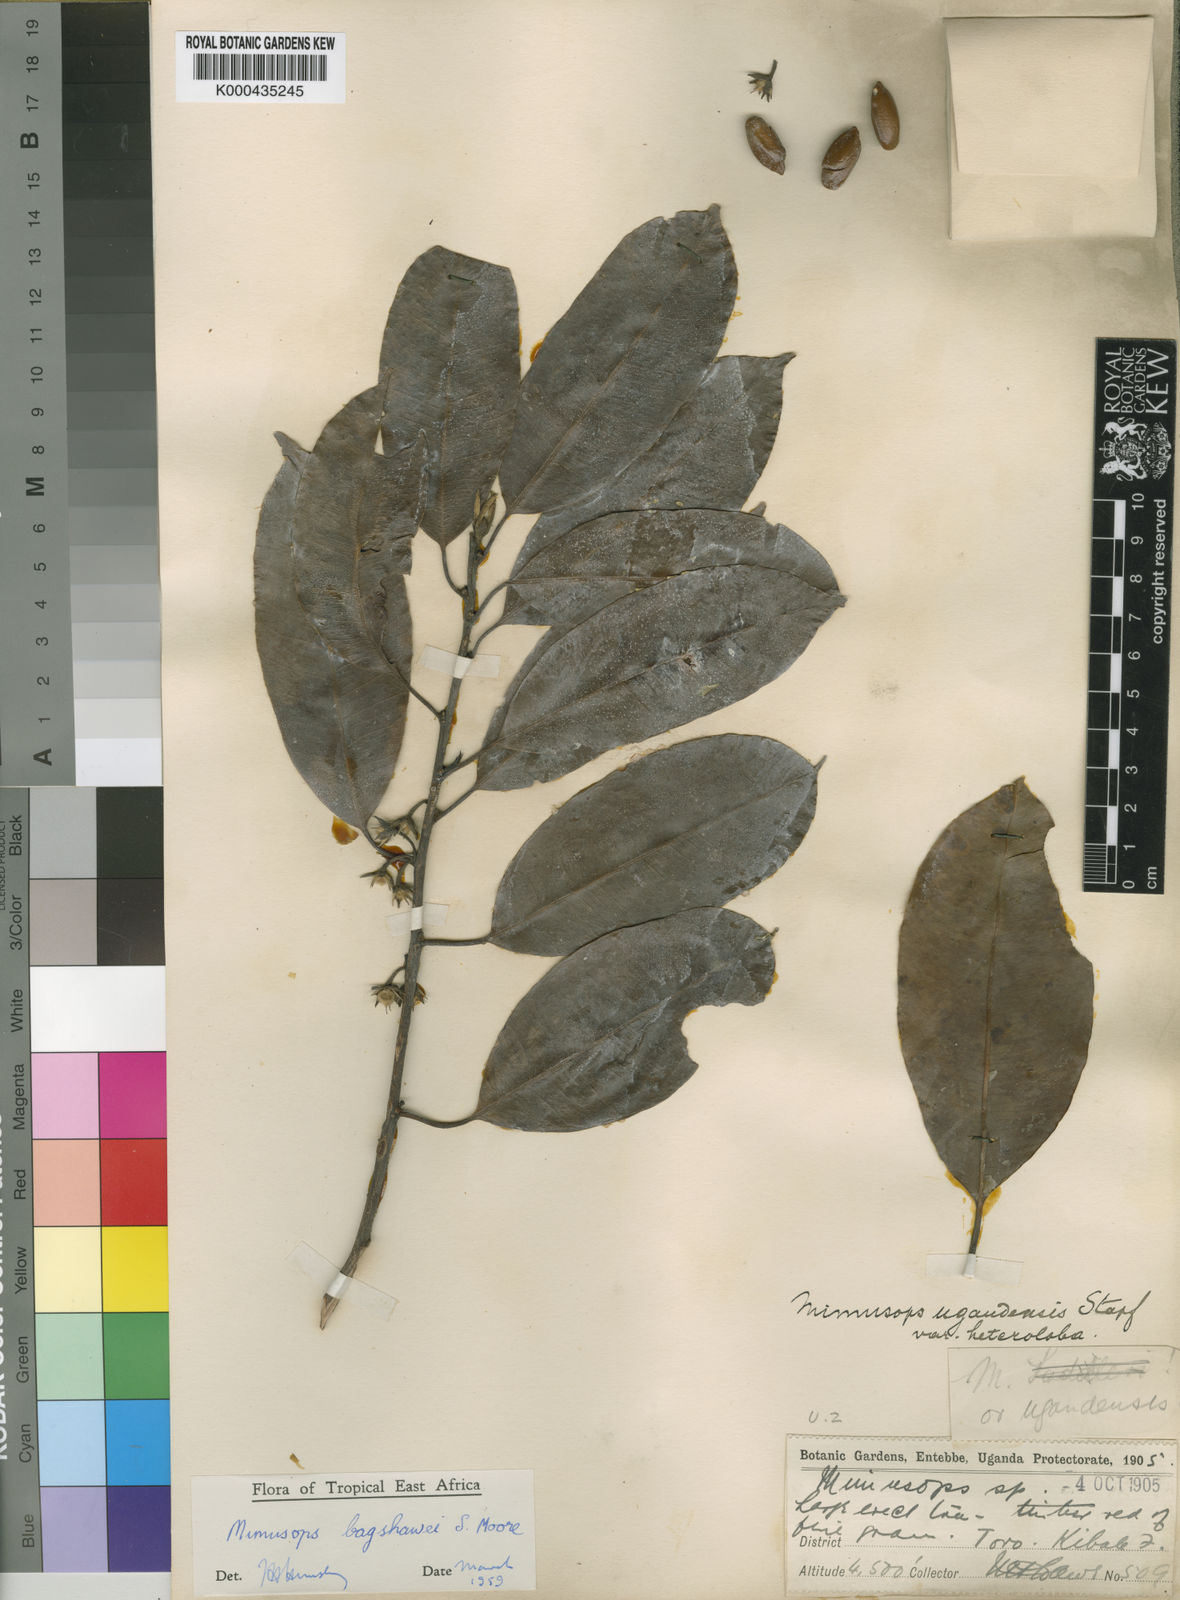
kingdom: Plantae
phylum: Tracheophyta
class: Magnoliopsida
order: Ericales
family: Sapotaceae
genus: Mimusops
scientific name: Mimusops bagshawei
